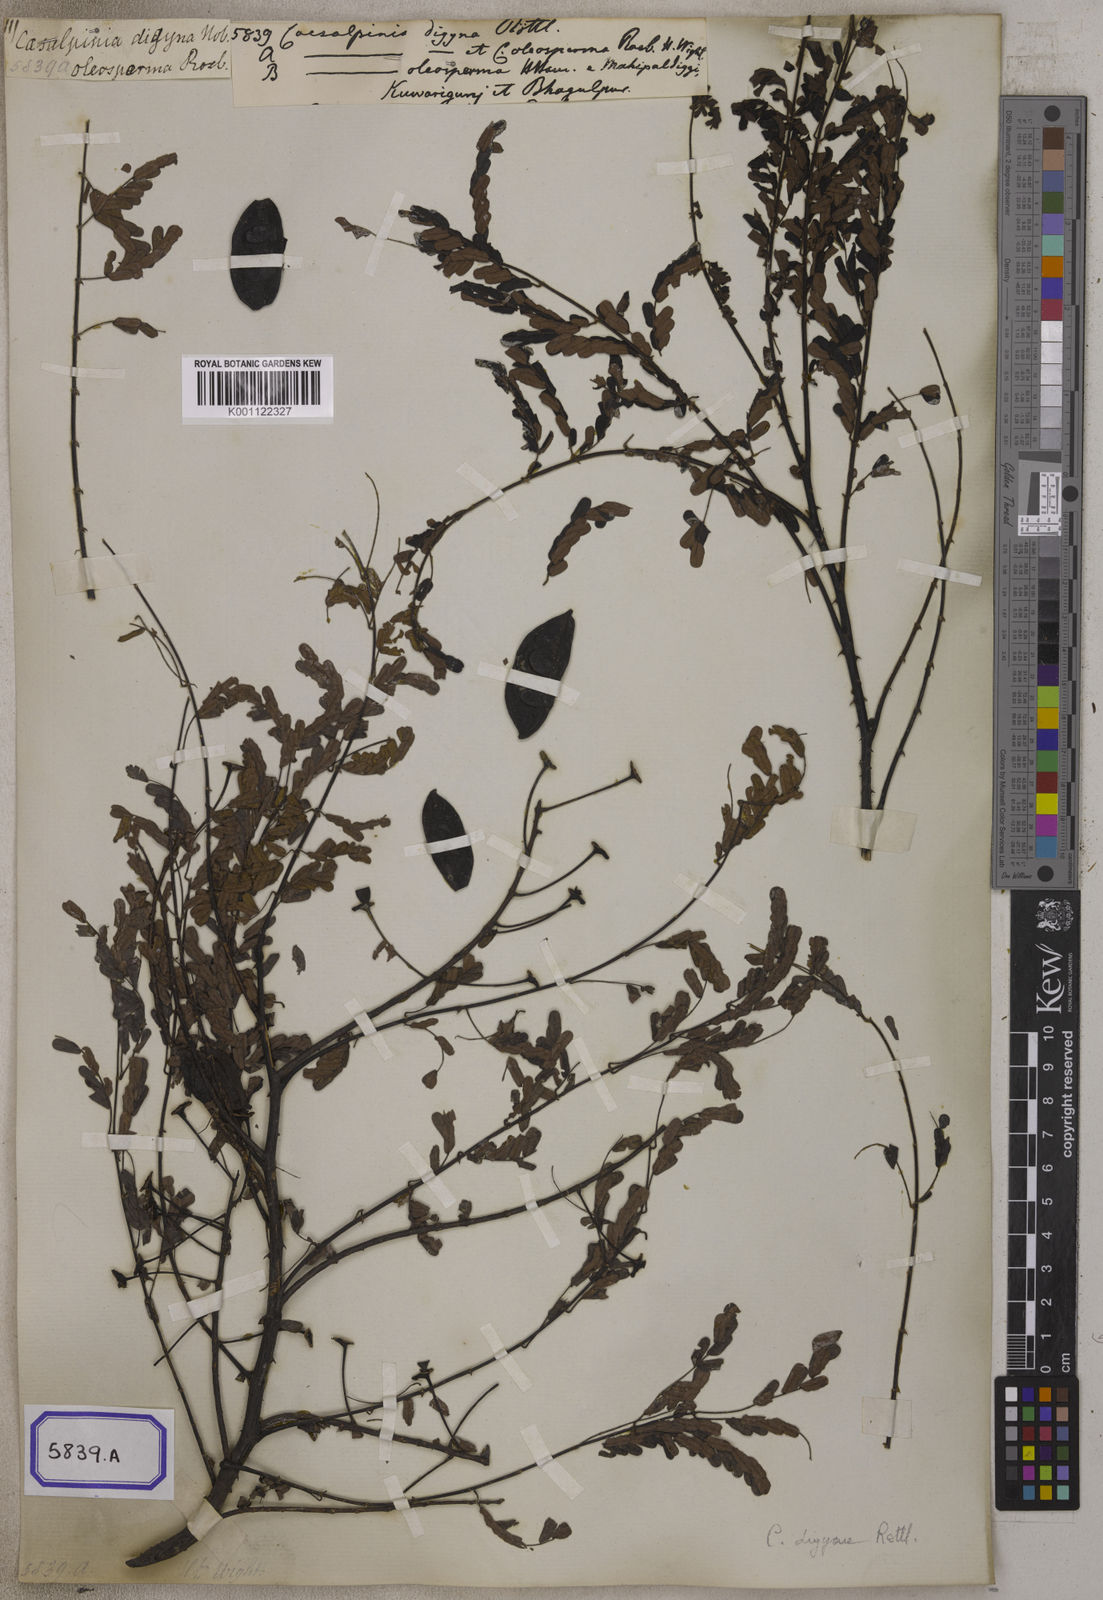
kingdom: Plantae
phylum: Tracheophyta
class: Magnoliopsida
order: Fabales
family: Fabaceae
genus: Moullava
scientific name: Moullava digyna
